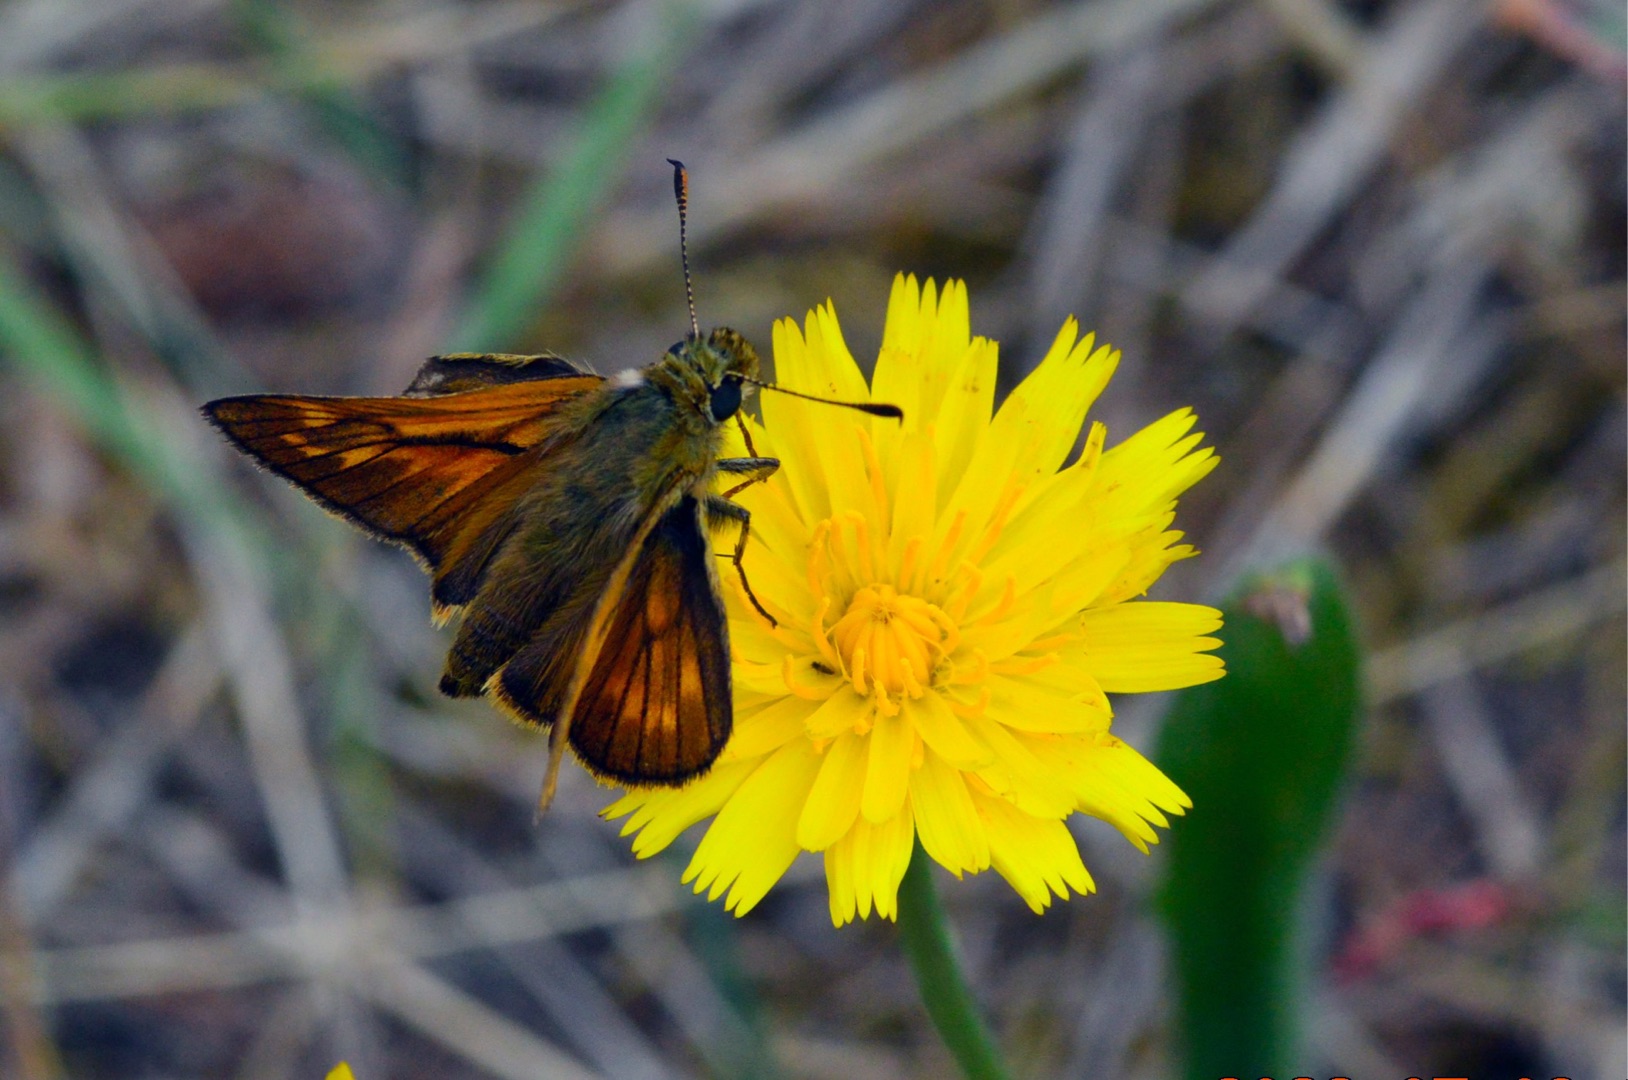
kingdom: Animalia
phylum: Arthropoda
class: Insecta
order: Lepidoptera
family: Hesperiidae
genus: Ochlodes
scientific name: Ochlodes venata
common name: Stor bredpande
